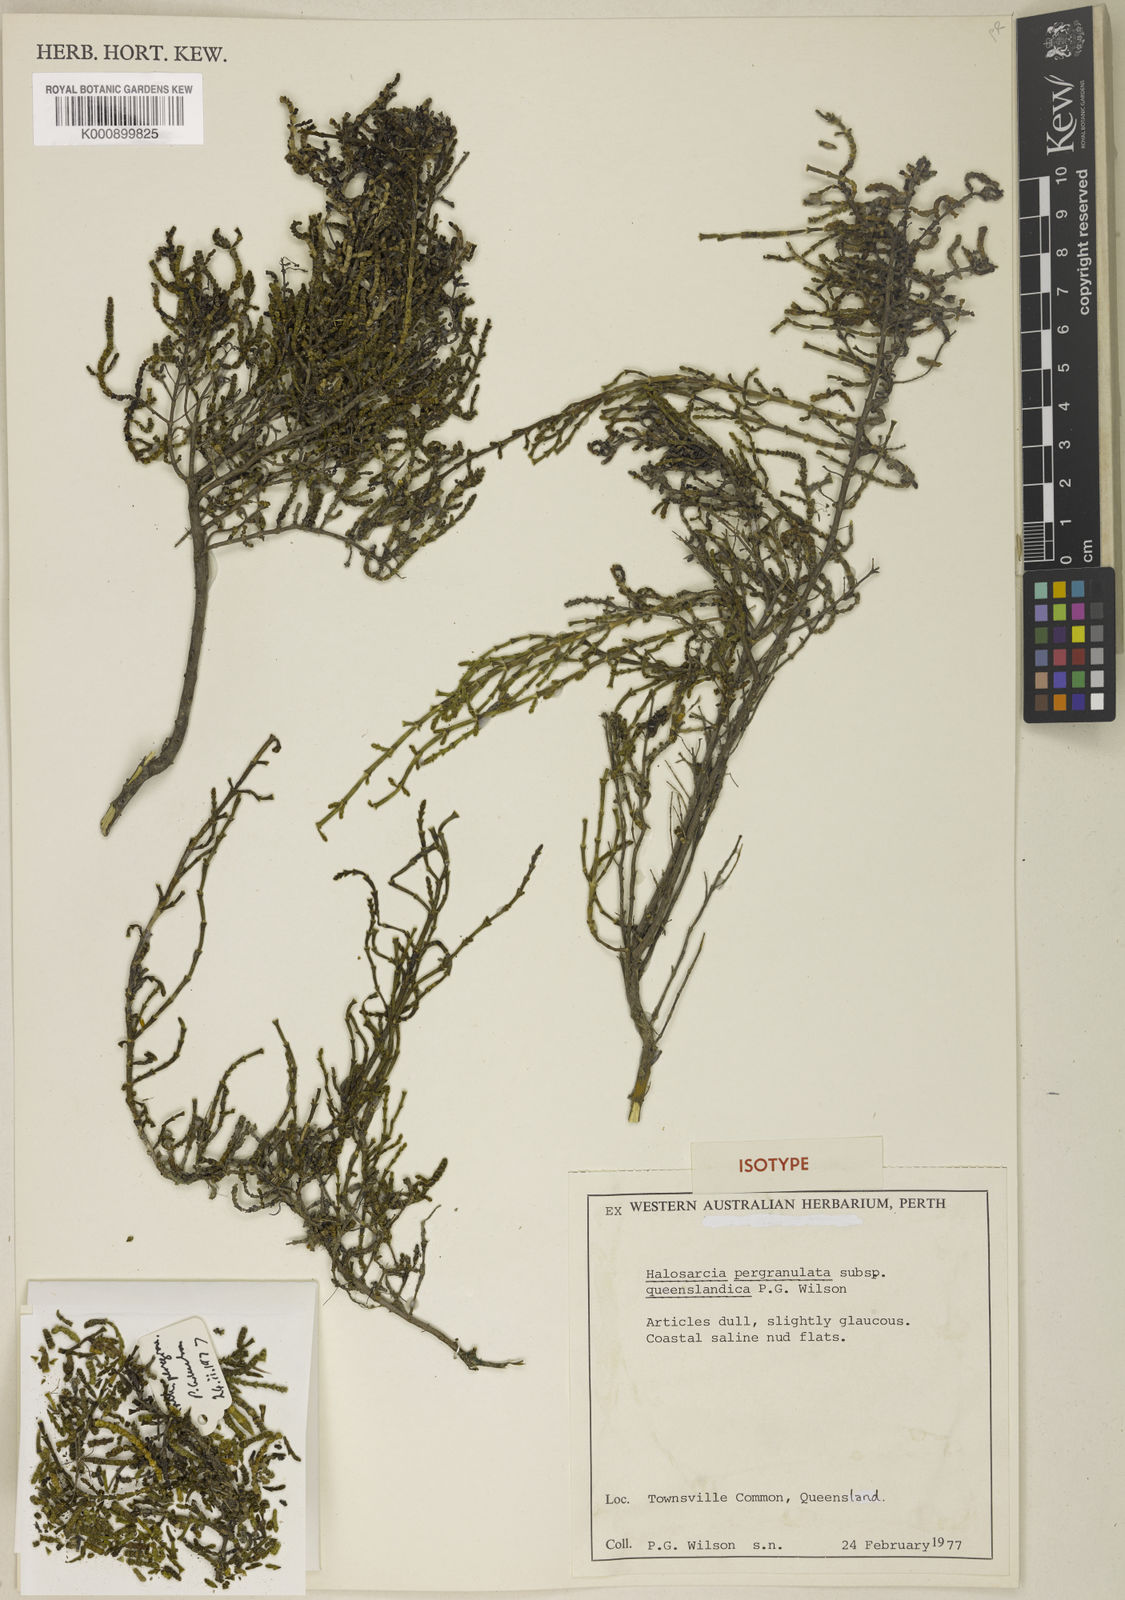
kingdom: Plantae
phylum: Tracheophyta
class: Magnoliopsida
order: Caryophyllales
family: Amaranthaceae
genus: Tecticornia
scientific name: Tecticornia pergranulata
